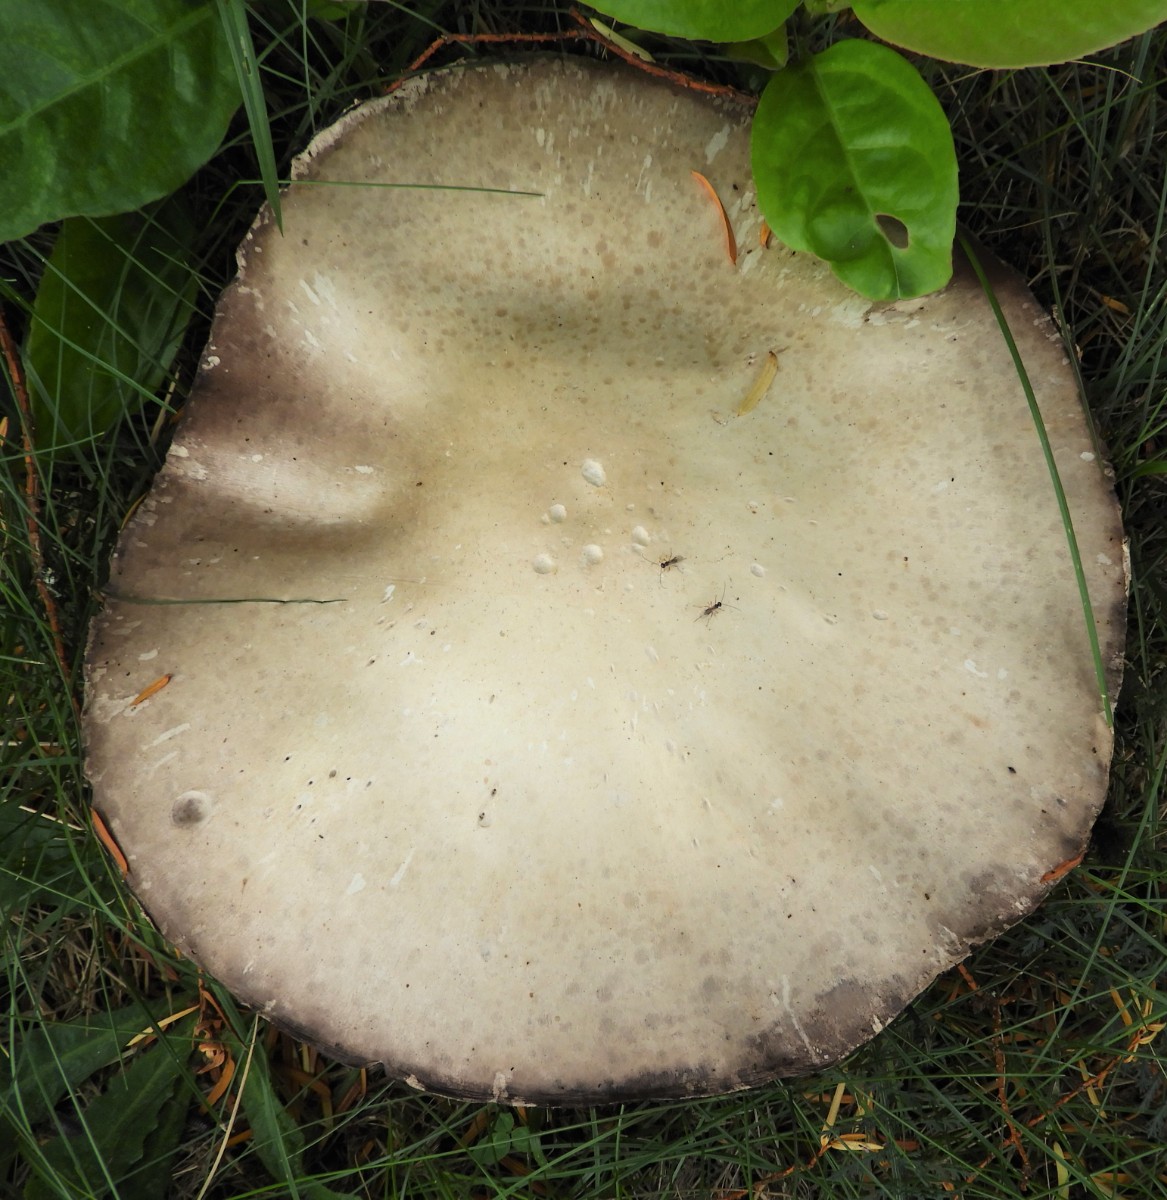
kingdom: Fungi
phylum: Basidiomycota
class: Agaricomycetes
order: Agaricales
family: Agaricaceae
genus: Agaricus
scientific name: Agaricus campestris
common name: mark-champignon
